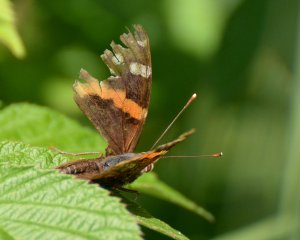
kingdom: Animalia
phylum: Arthropoda
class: Insecta
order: Lepidoptera
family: Nymphalidae
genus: Vanessa
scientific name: Vanessa atalanta
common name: Red Admiral
